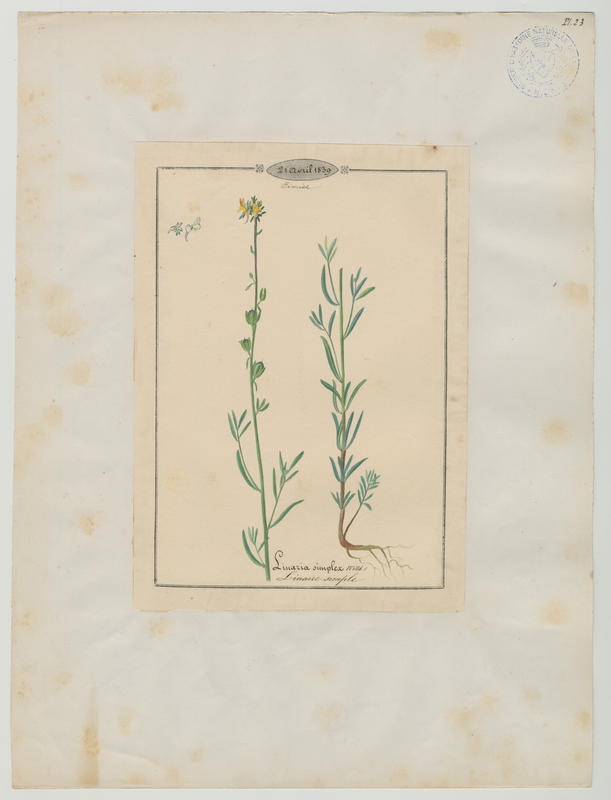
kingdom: Plantae
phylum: Tracheophyta
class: Magnoliopsida
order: Lamiales
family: Plantaginaceae
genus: Linaria
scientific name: Linaria simplex
